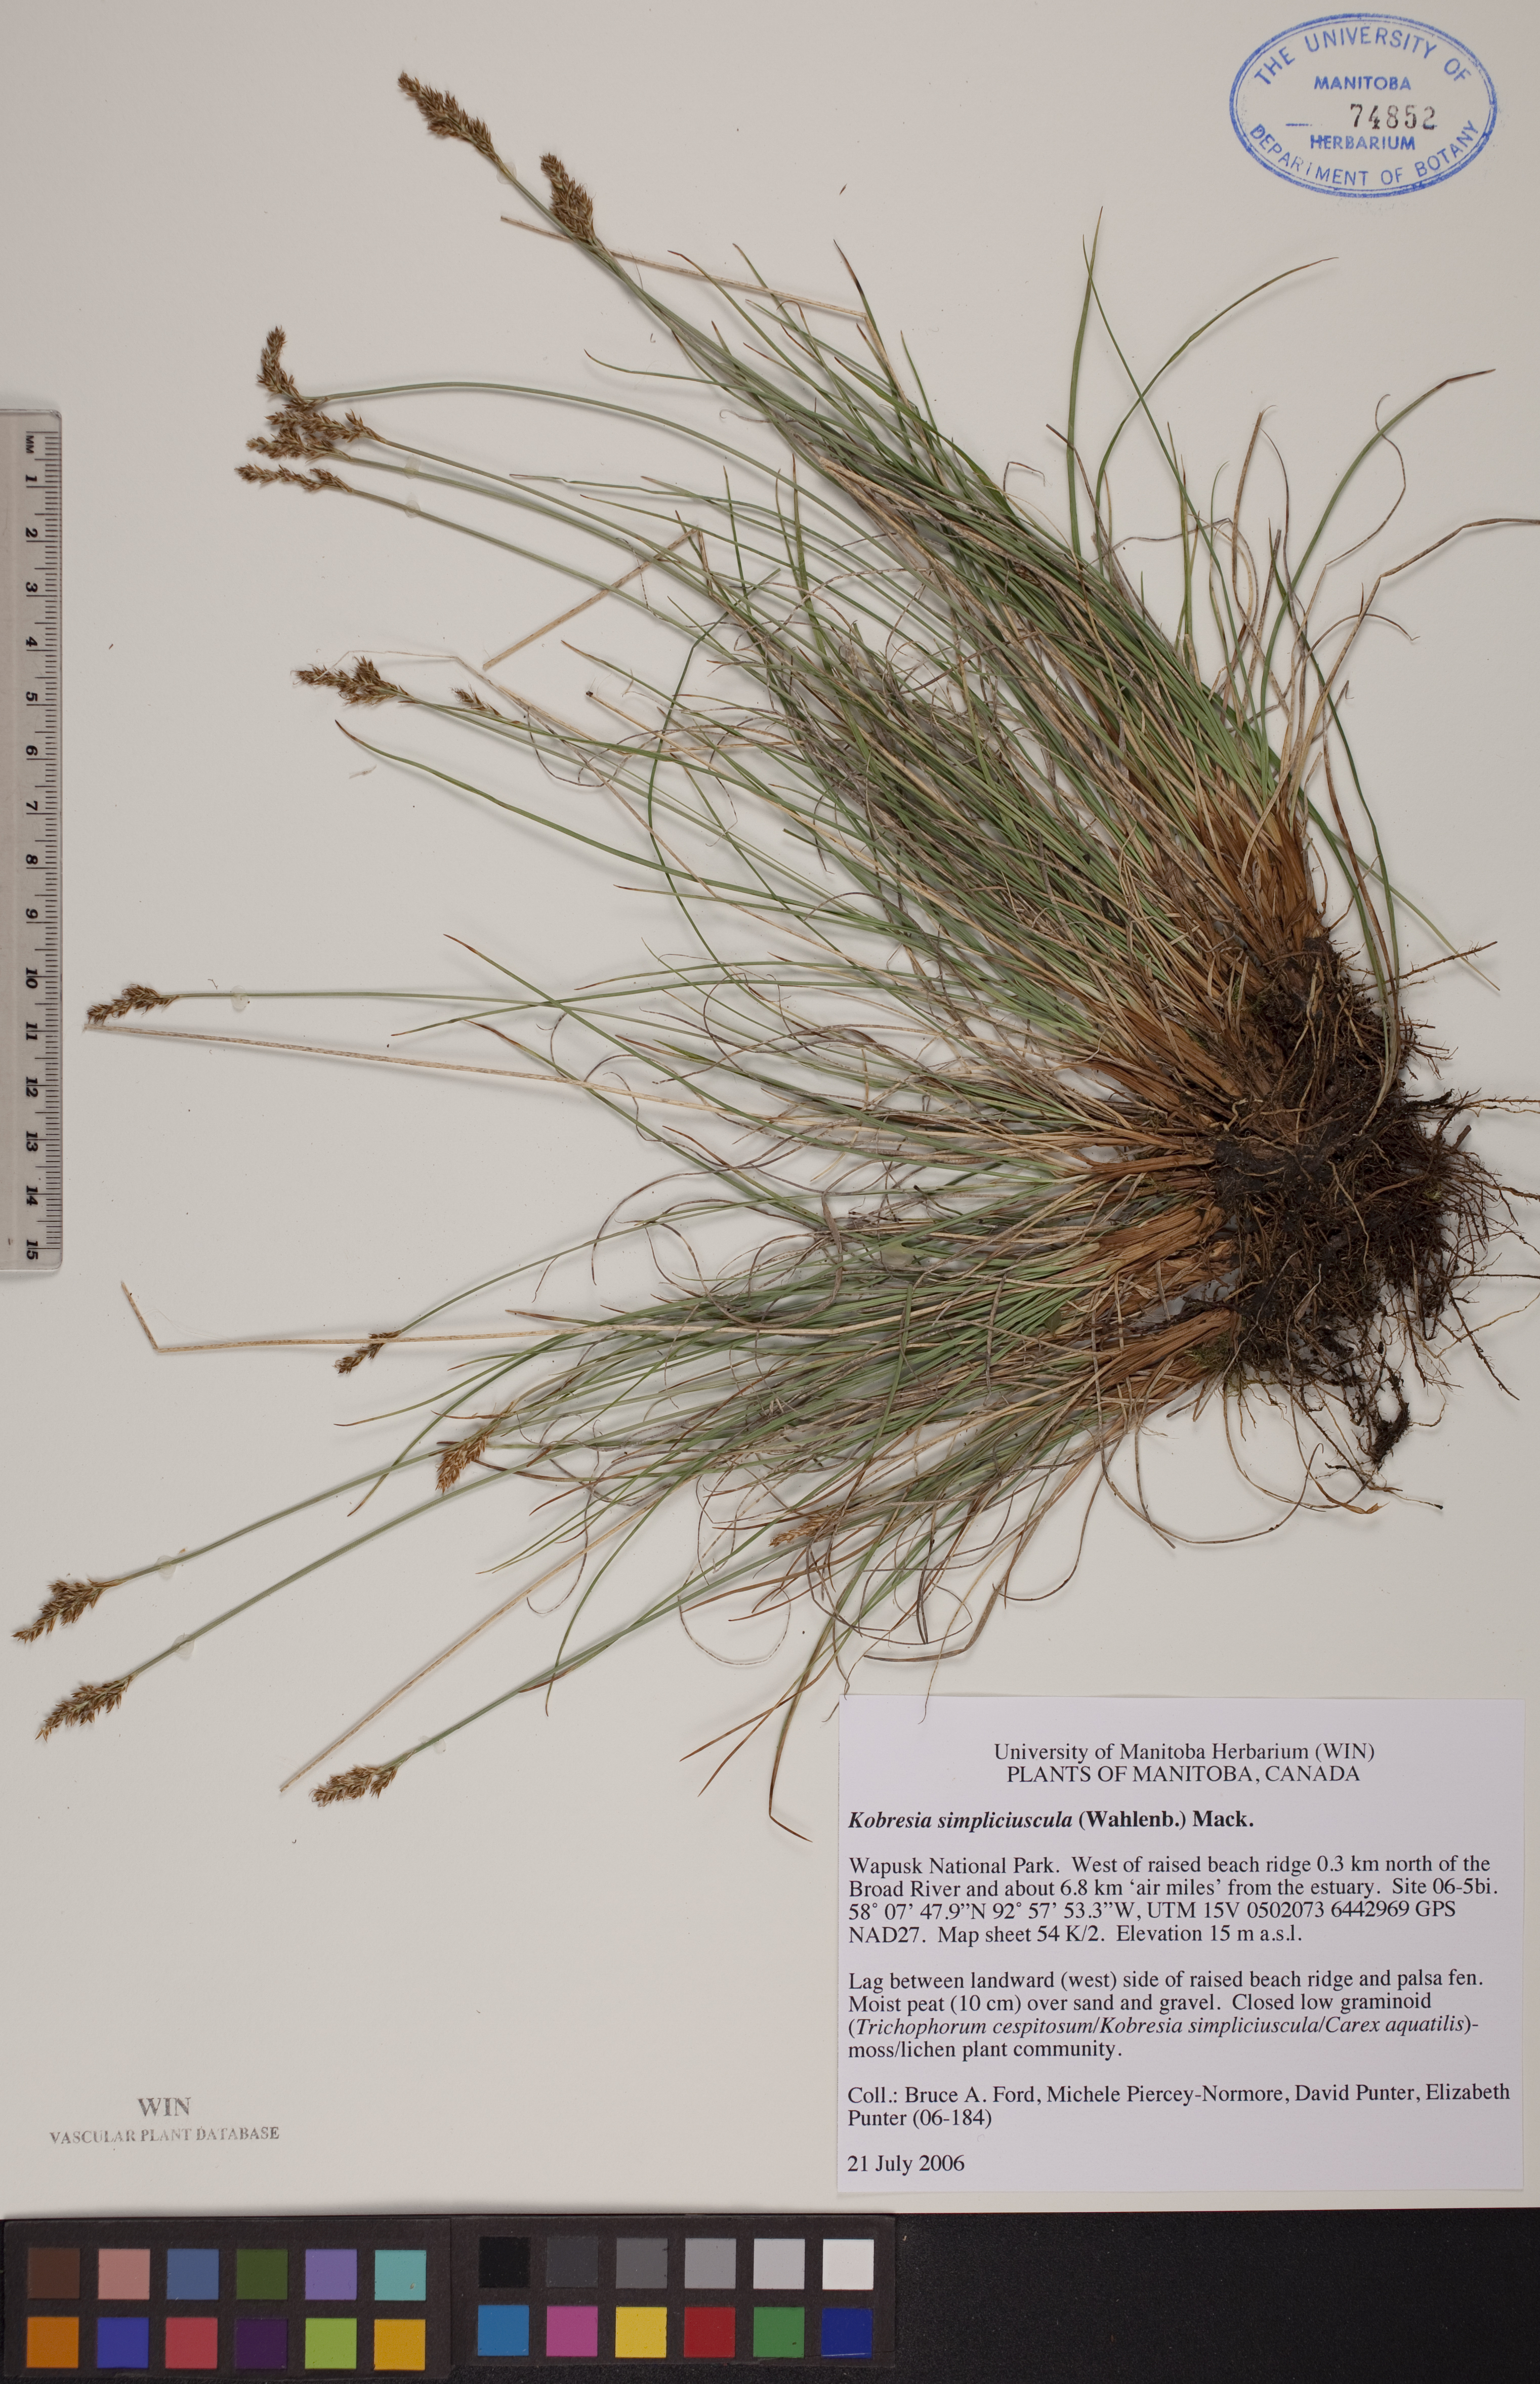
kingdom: Plantae
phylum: Tracheophyta
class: Liliopsida
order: Poales
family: Cyperaceae
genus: Carex
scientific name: Carex simpliciuscula
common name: Simple bog sedge
